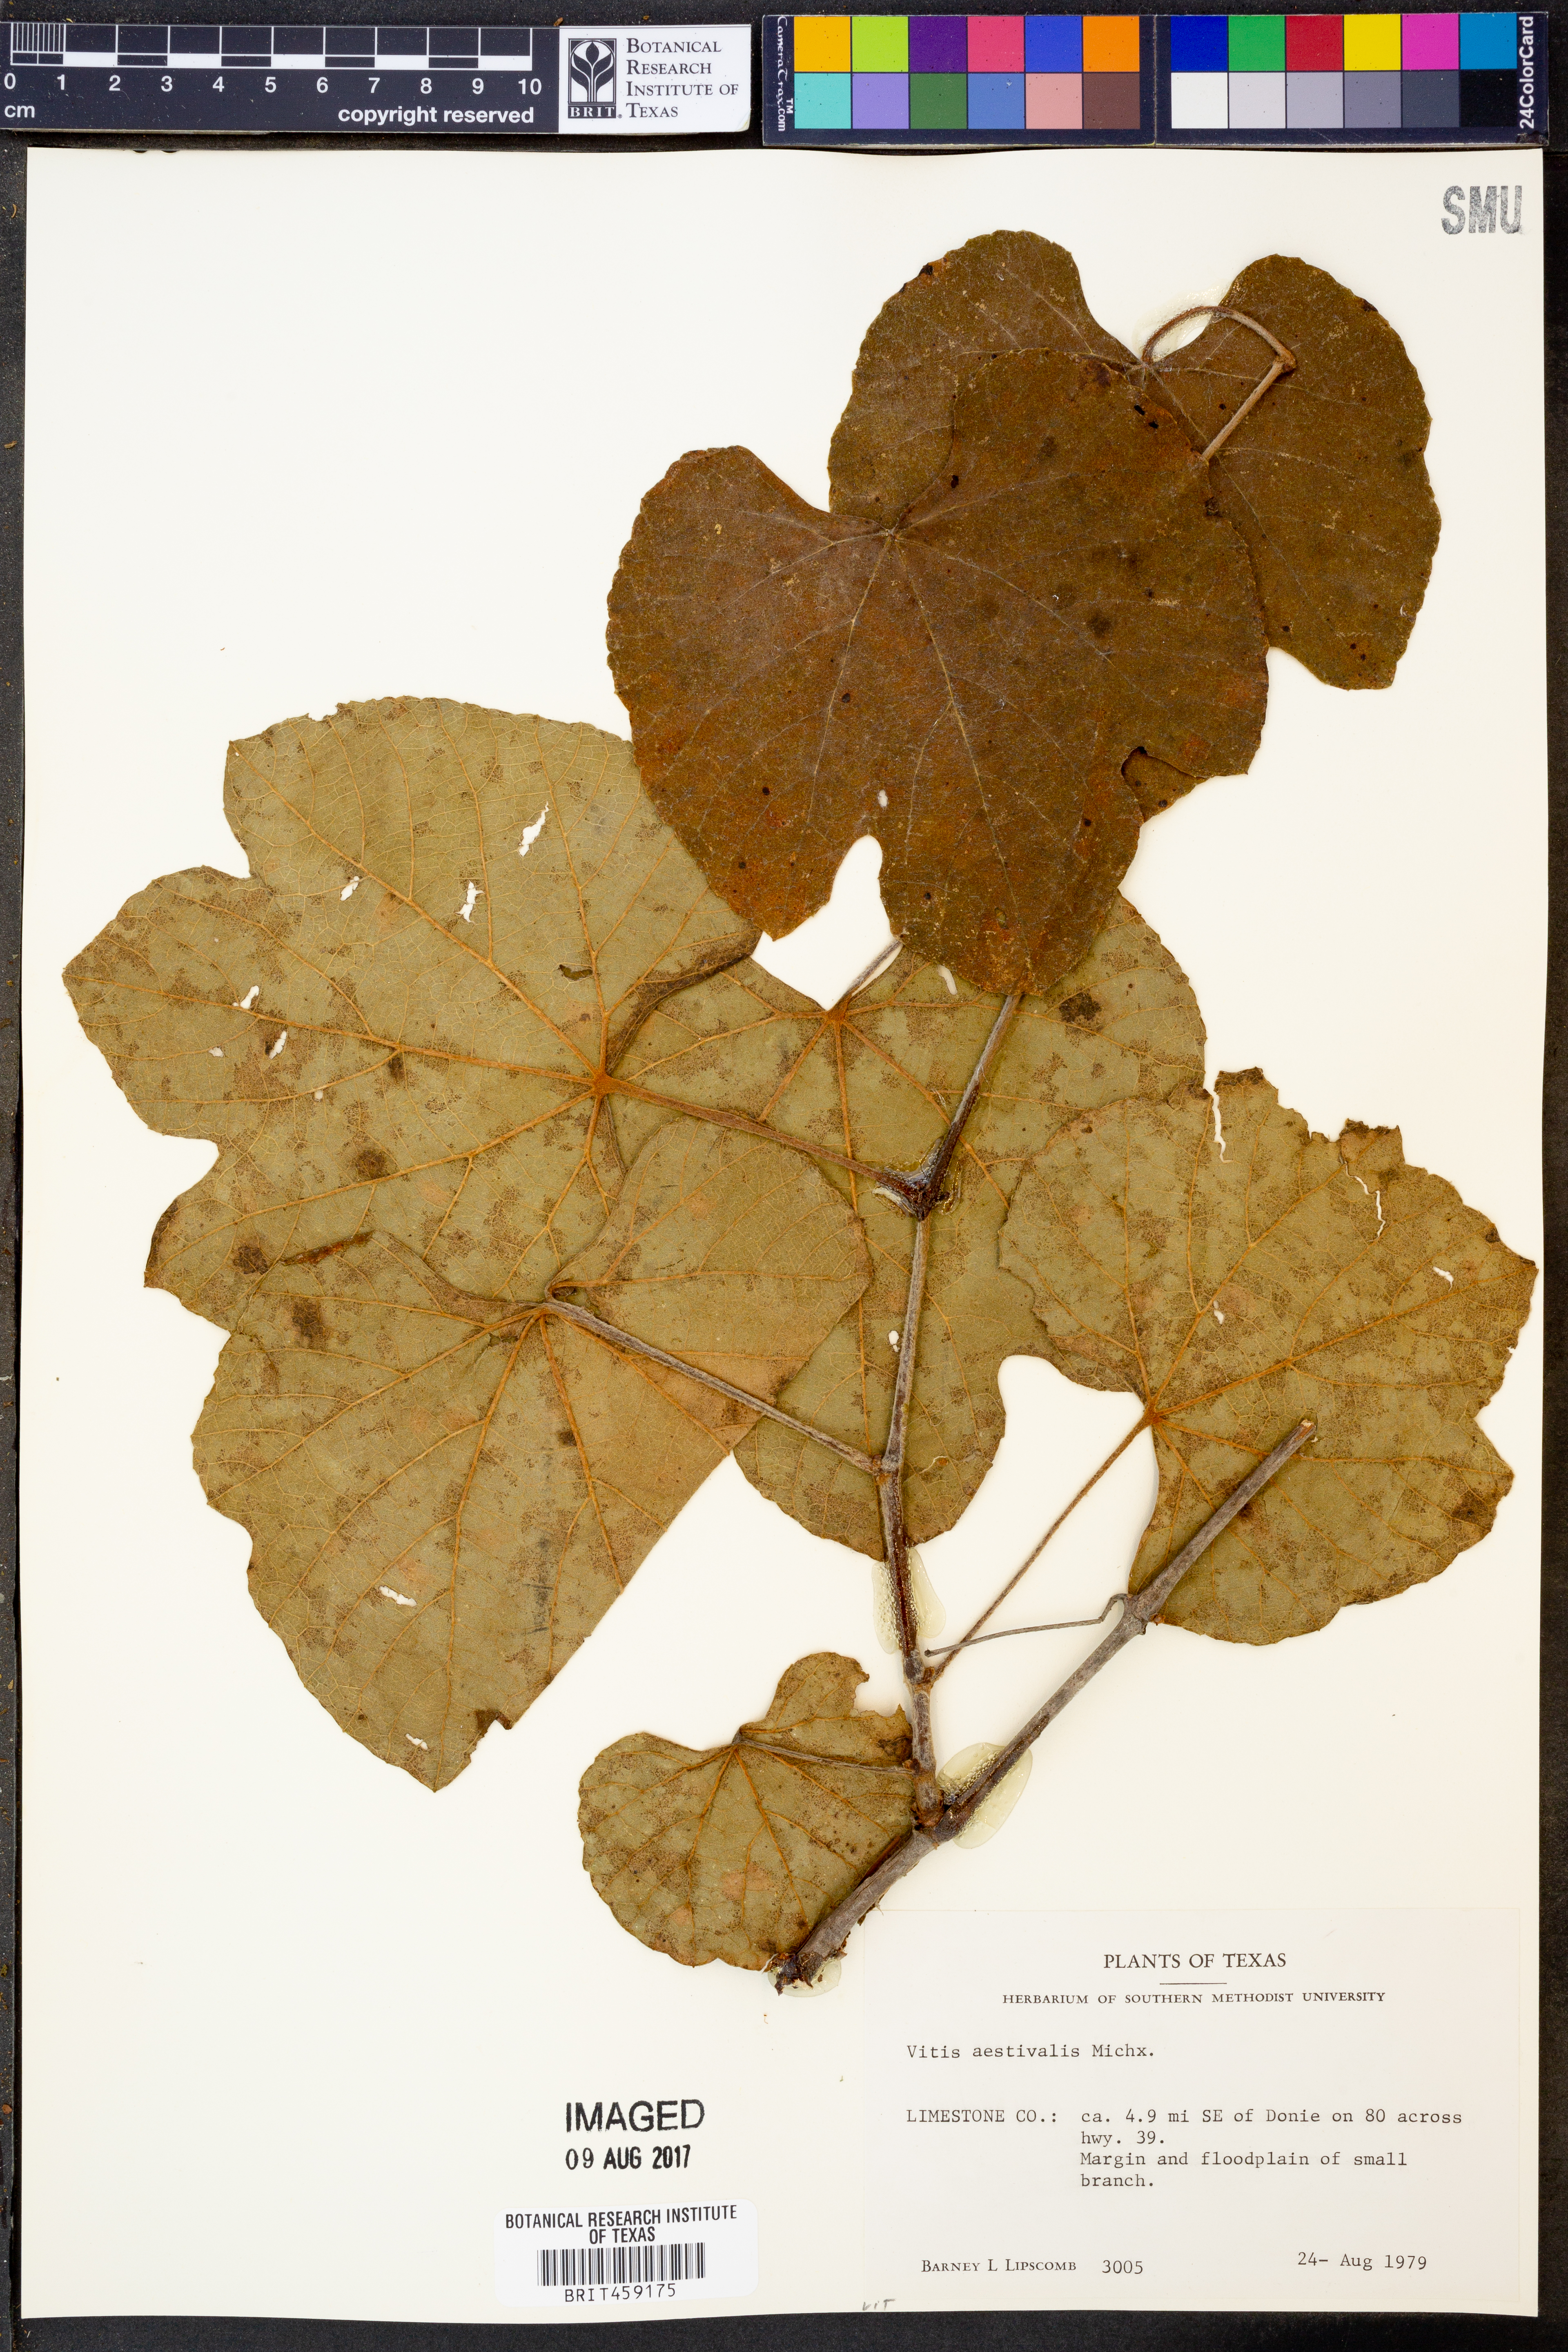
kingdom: Plantae
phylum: Tracheophyta
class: Magnoliopsida
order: Vitales
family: Vitaceae
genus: Vitis
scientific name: Vitis aestivalis
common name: Pigeon grape
